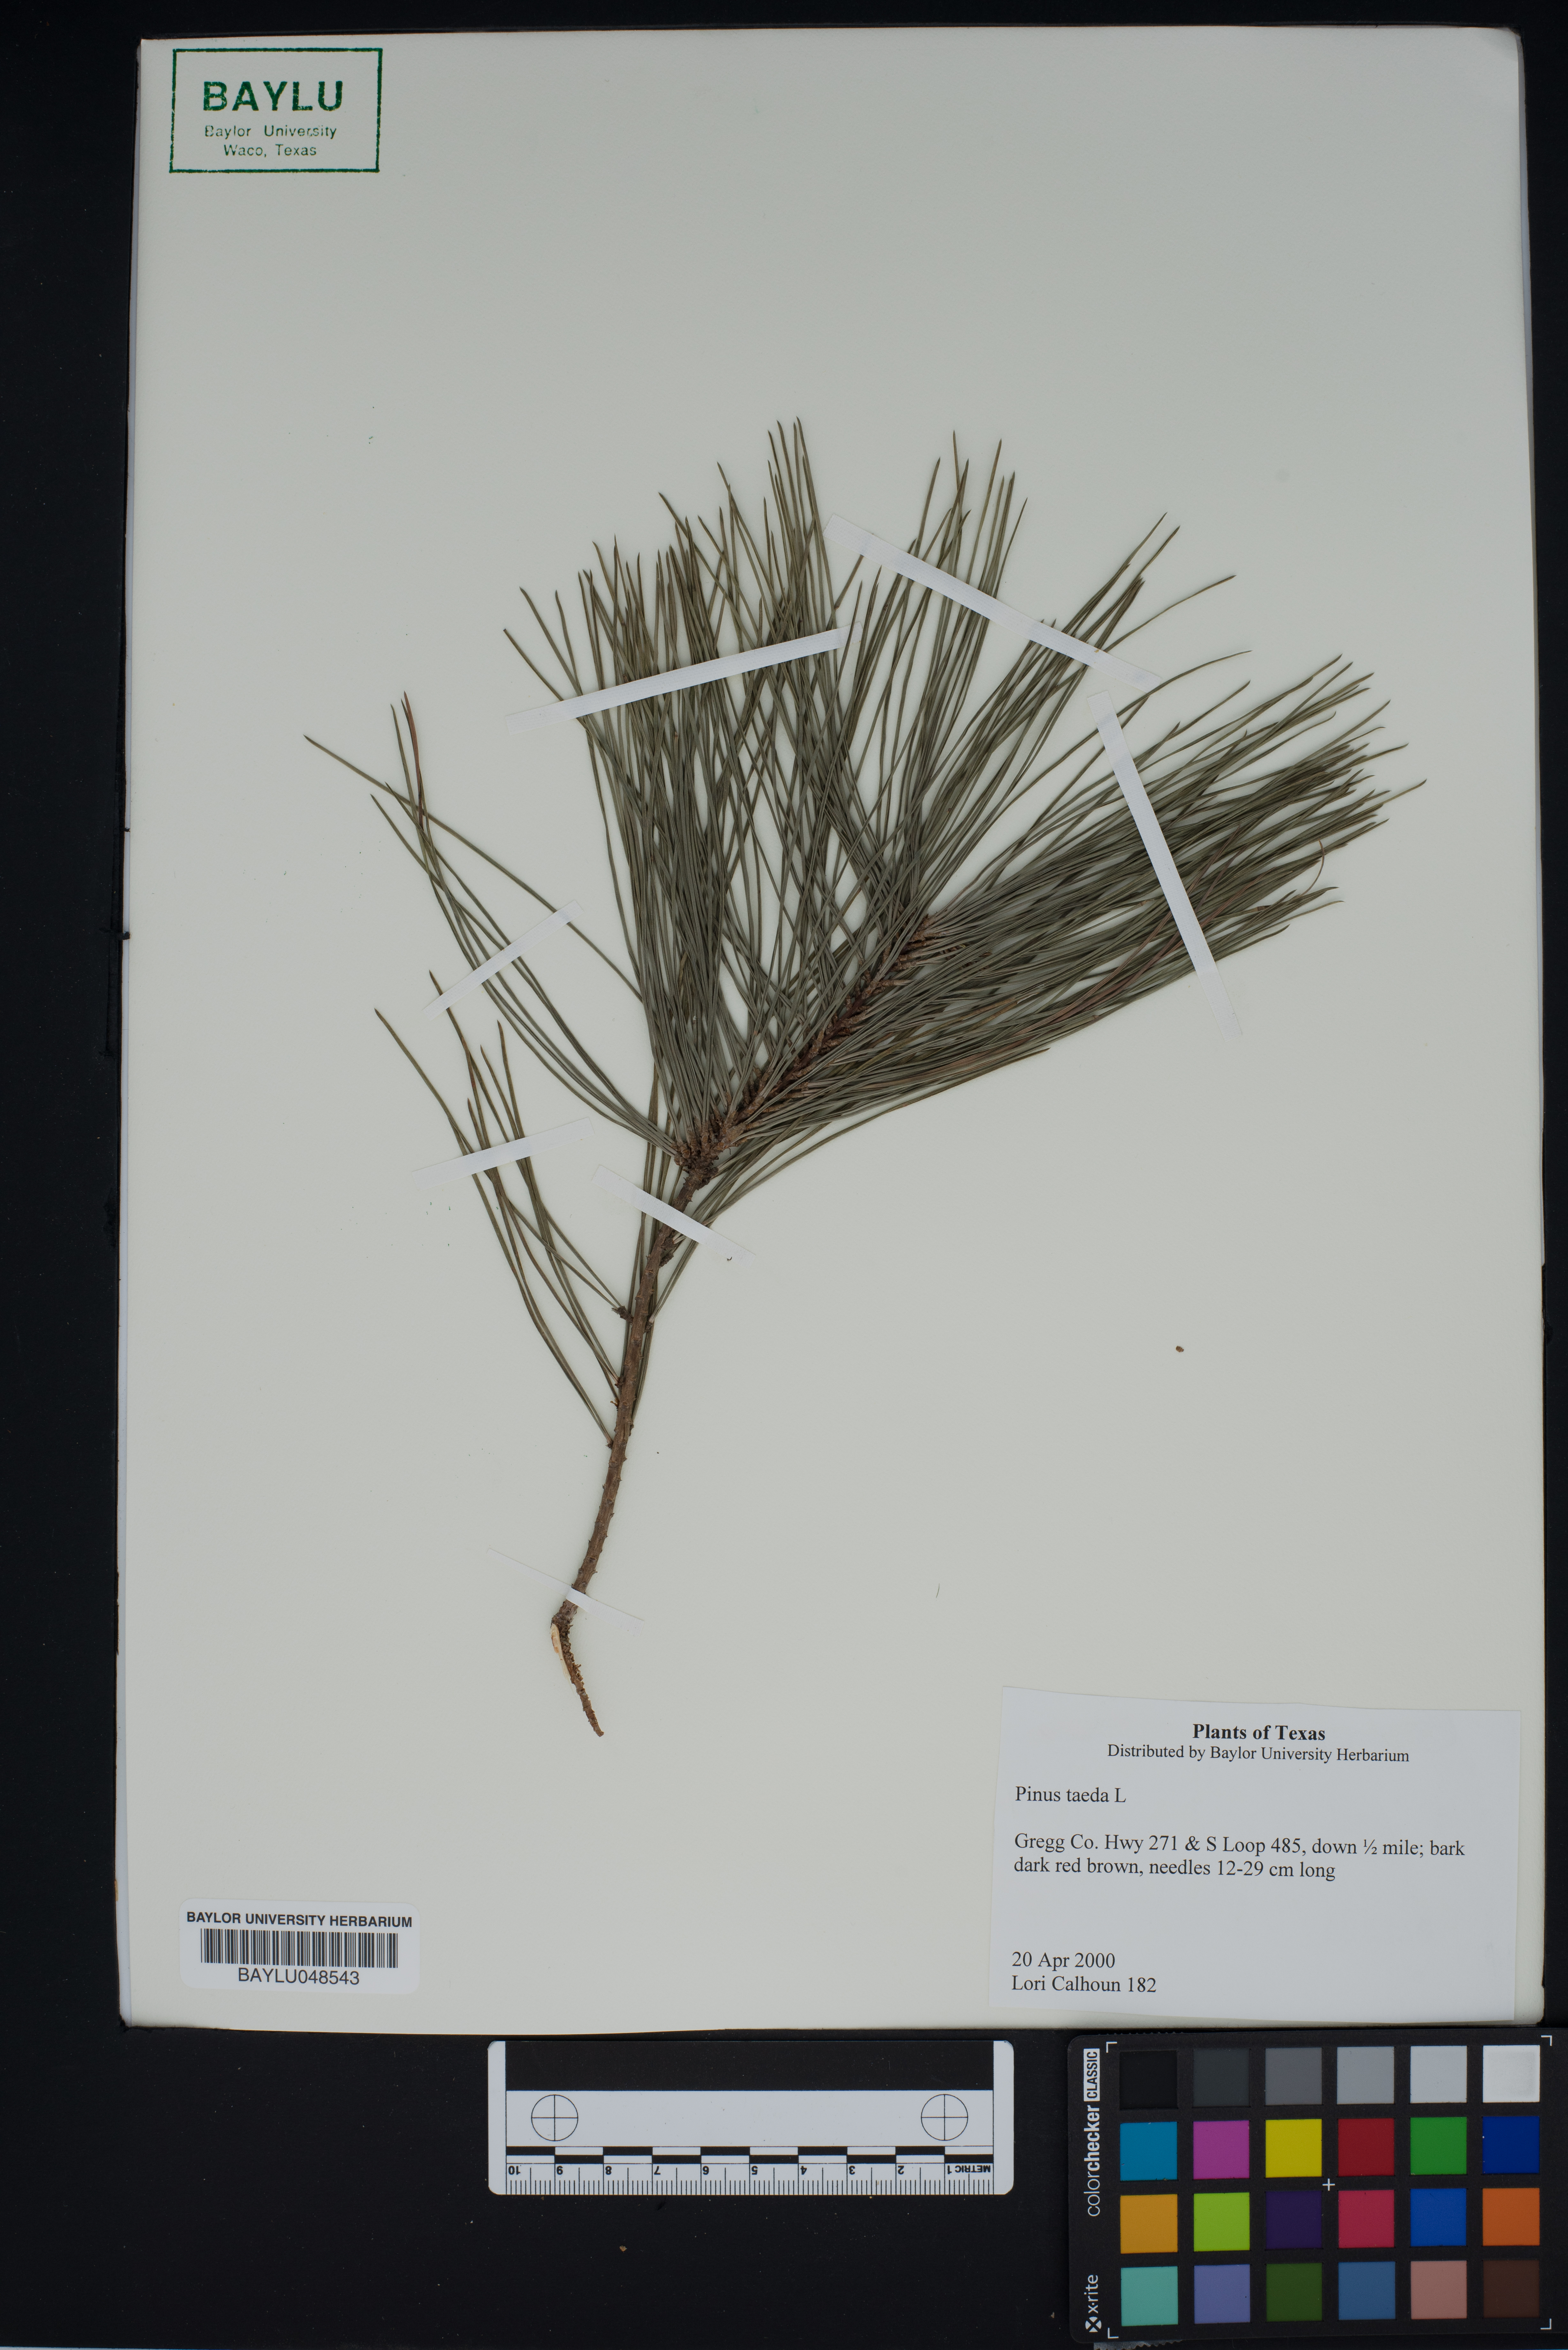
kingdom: Plantae
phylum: Tracheophyta
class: Pinopsida
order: Pinales
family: Pinaceae
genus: Pinus
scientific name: Pinus taeda
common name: Loblolly pine
